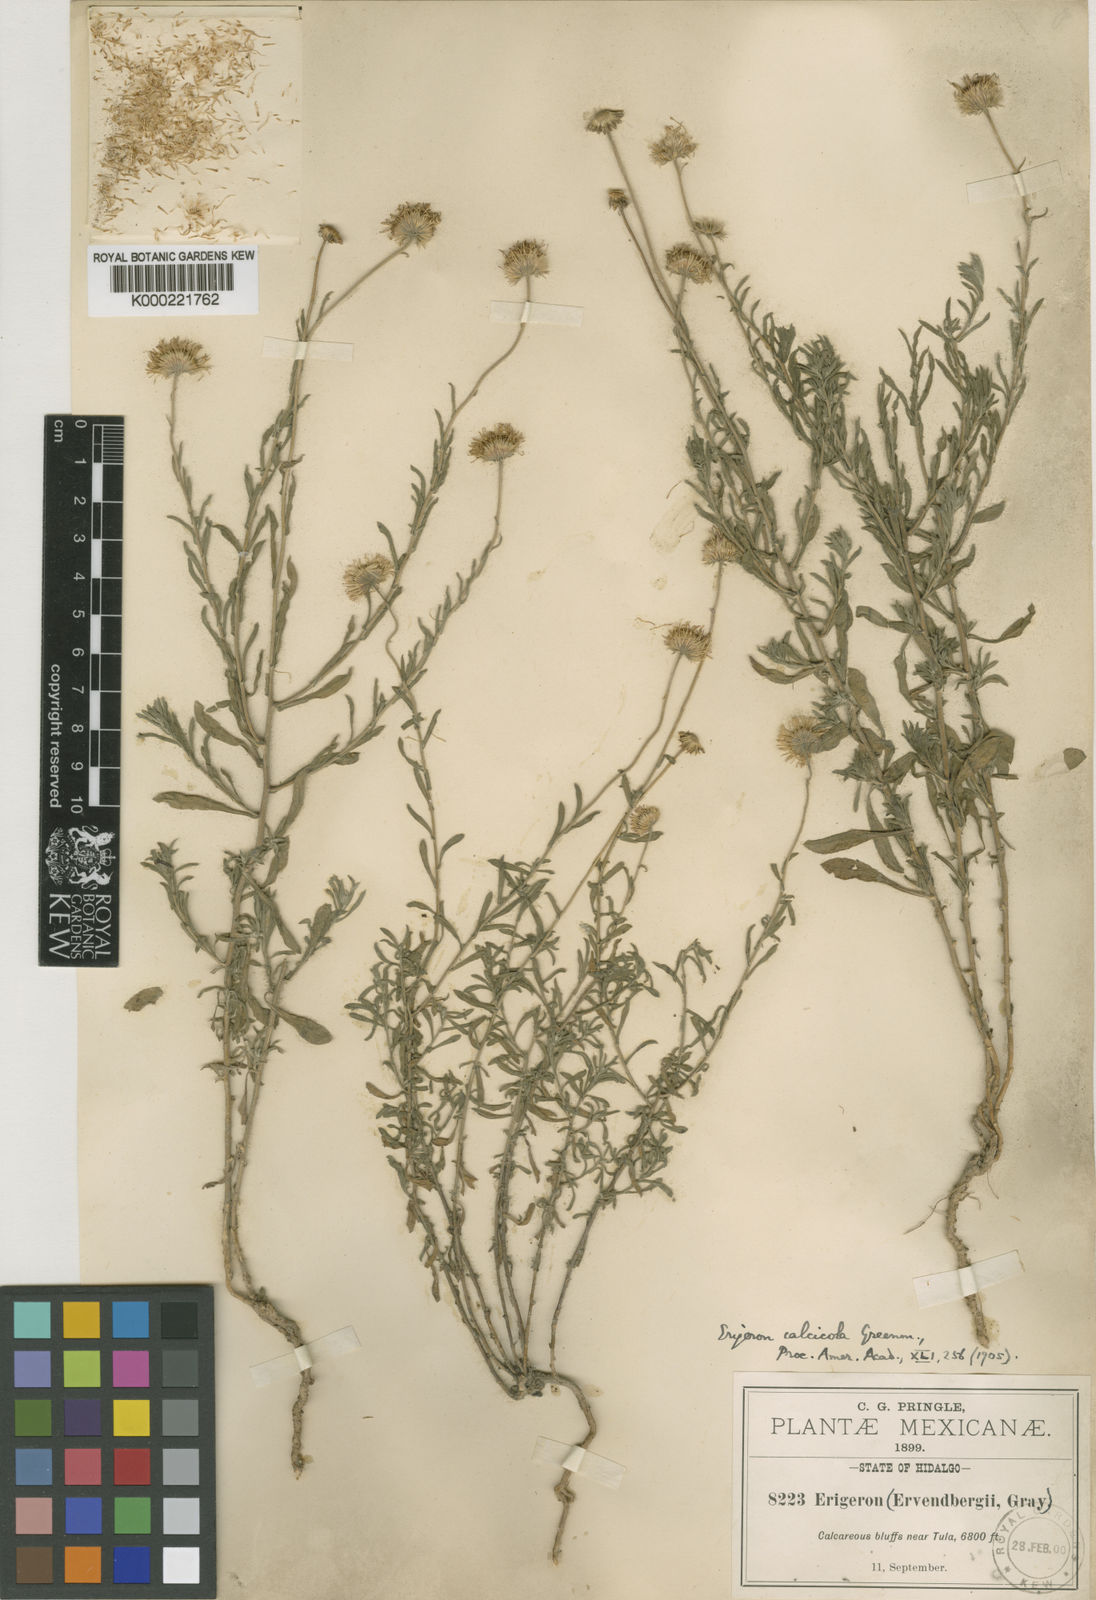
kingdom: Plantae
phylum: Tracheophyta
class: Magnoliopsida
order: Asterales
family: Asteraceae
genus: Erigeron
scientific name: Erigeron calcicola
